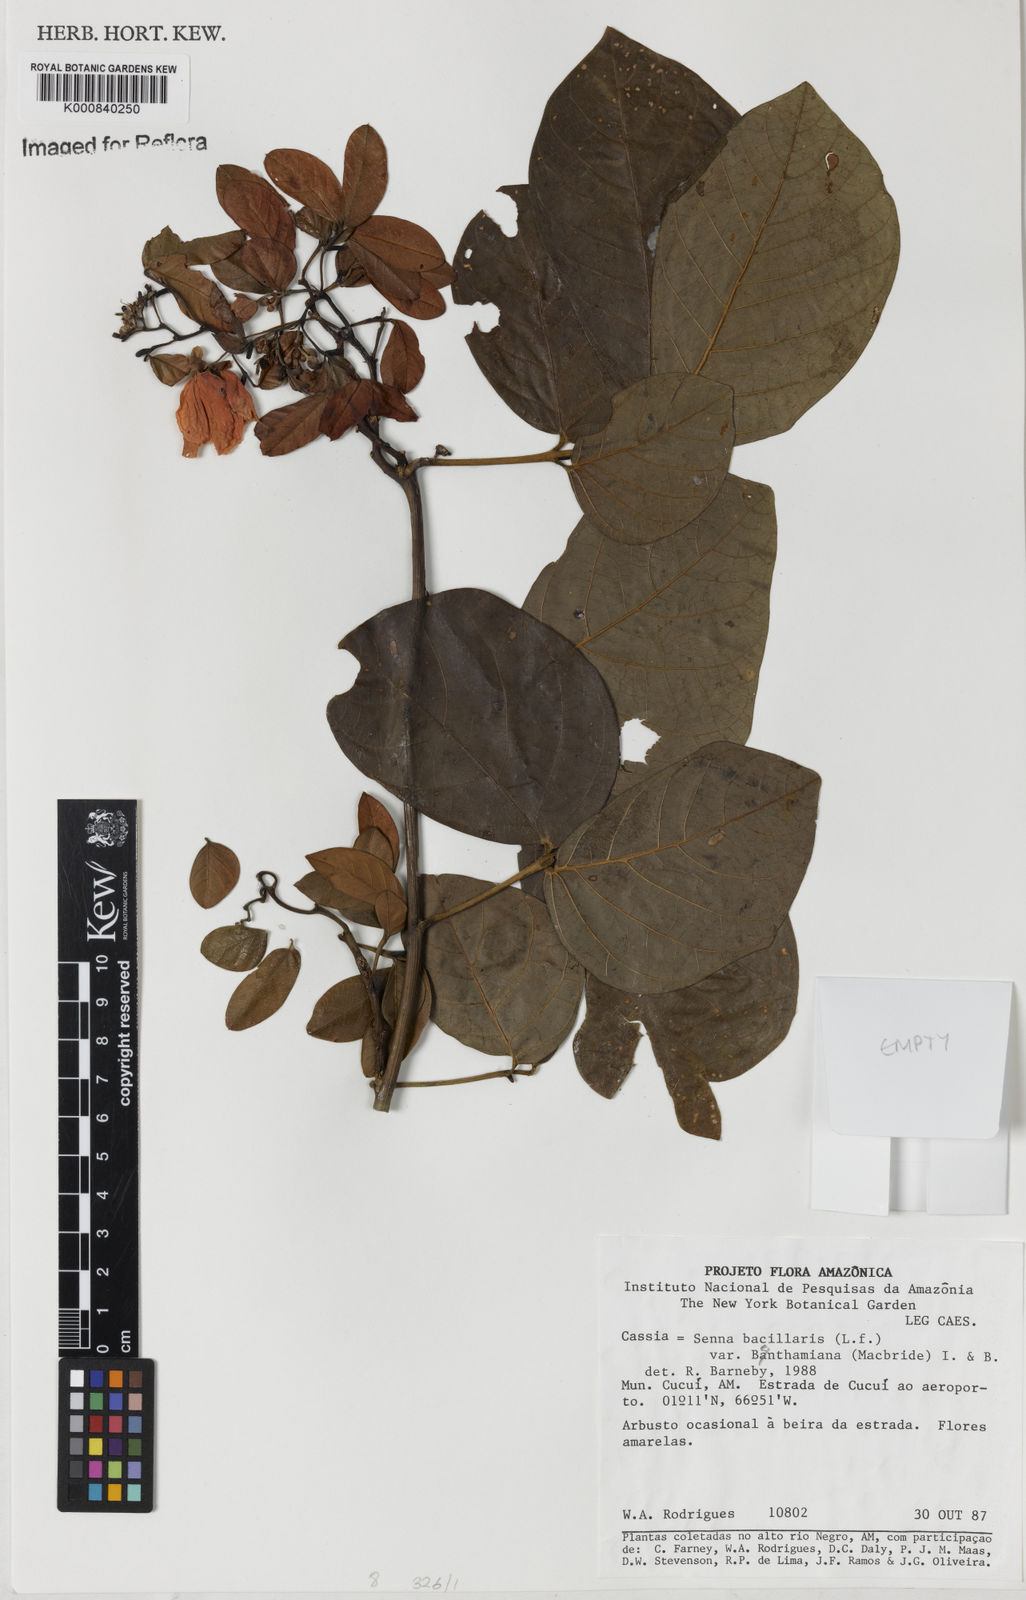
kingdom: Plantae
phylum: Tracheophyta
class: Magnoliopsida
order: Fabales
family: Fabaceae
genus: Senna
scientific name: Senna bacillaris
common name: West indian showertree
